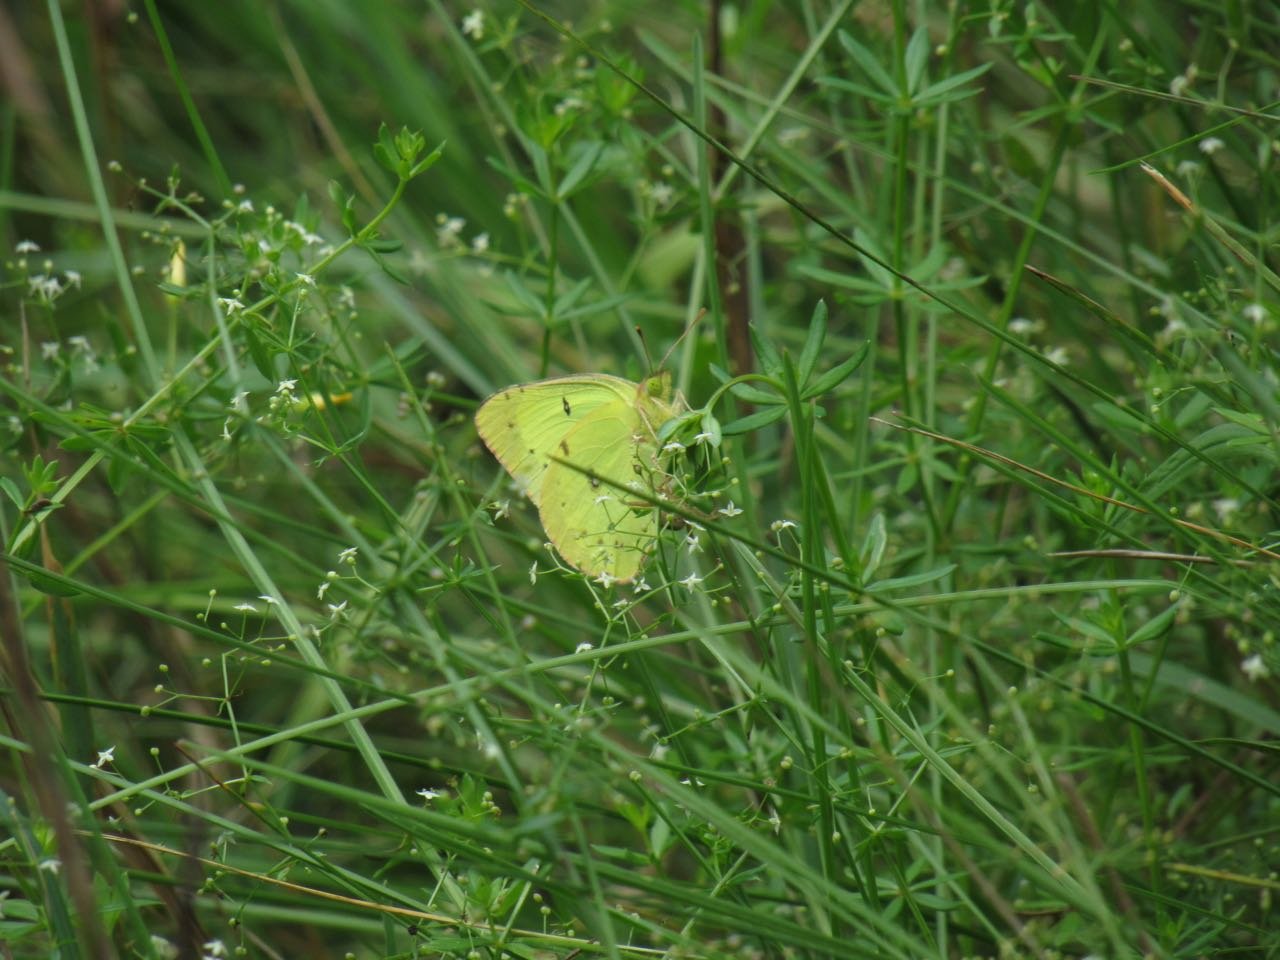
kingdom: Animalia
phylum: Arthropoda
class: Insecta
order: Lepidoptera
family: Pieridae
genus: Colias
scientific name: Colias philodice
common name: Clouded Sulphur
